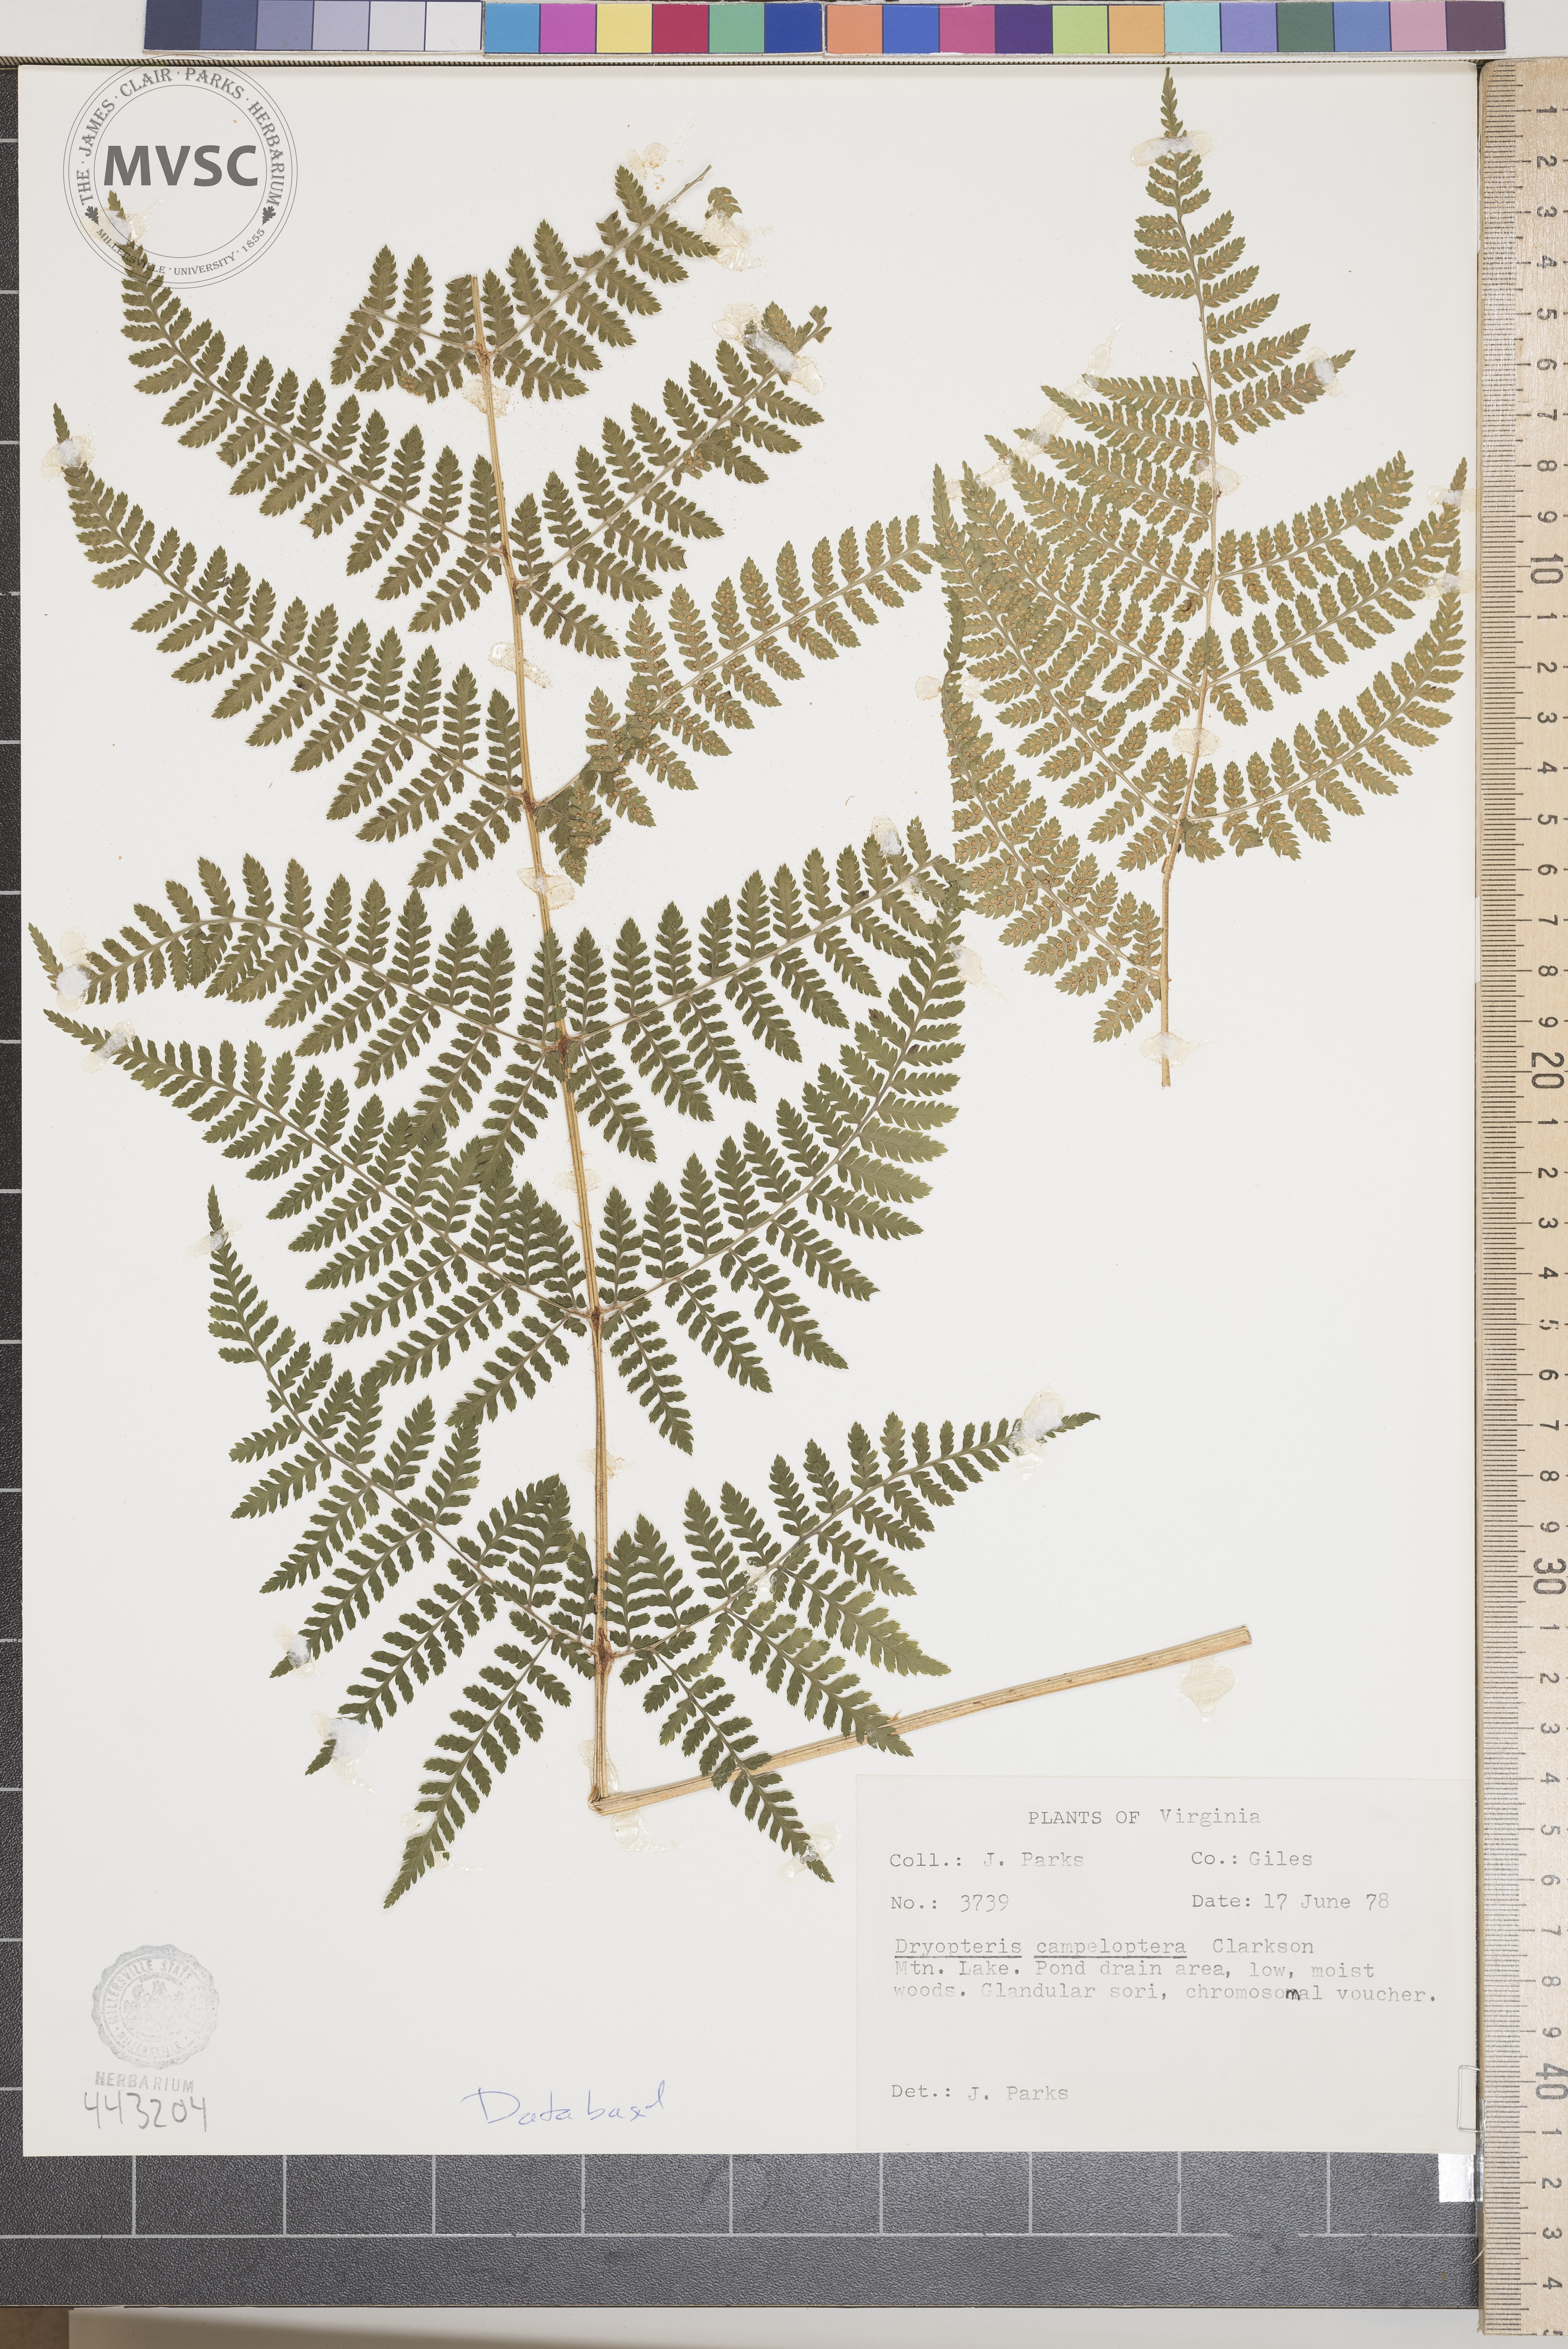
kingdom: Plantae
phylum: Tracheophyta
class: Polypodiopsida
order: Polypodiales
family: Dryopteridaceae
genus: Dryopteris
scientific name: Dryopteris campyloptera
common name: Mountain wood fern
